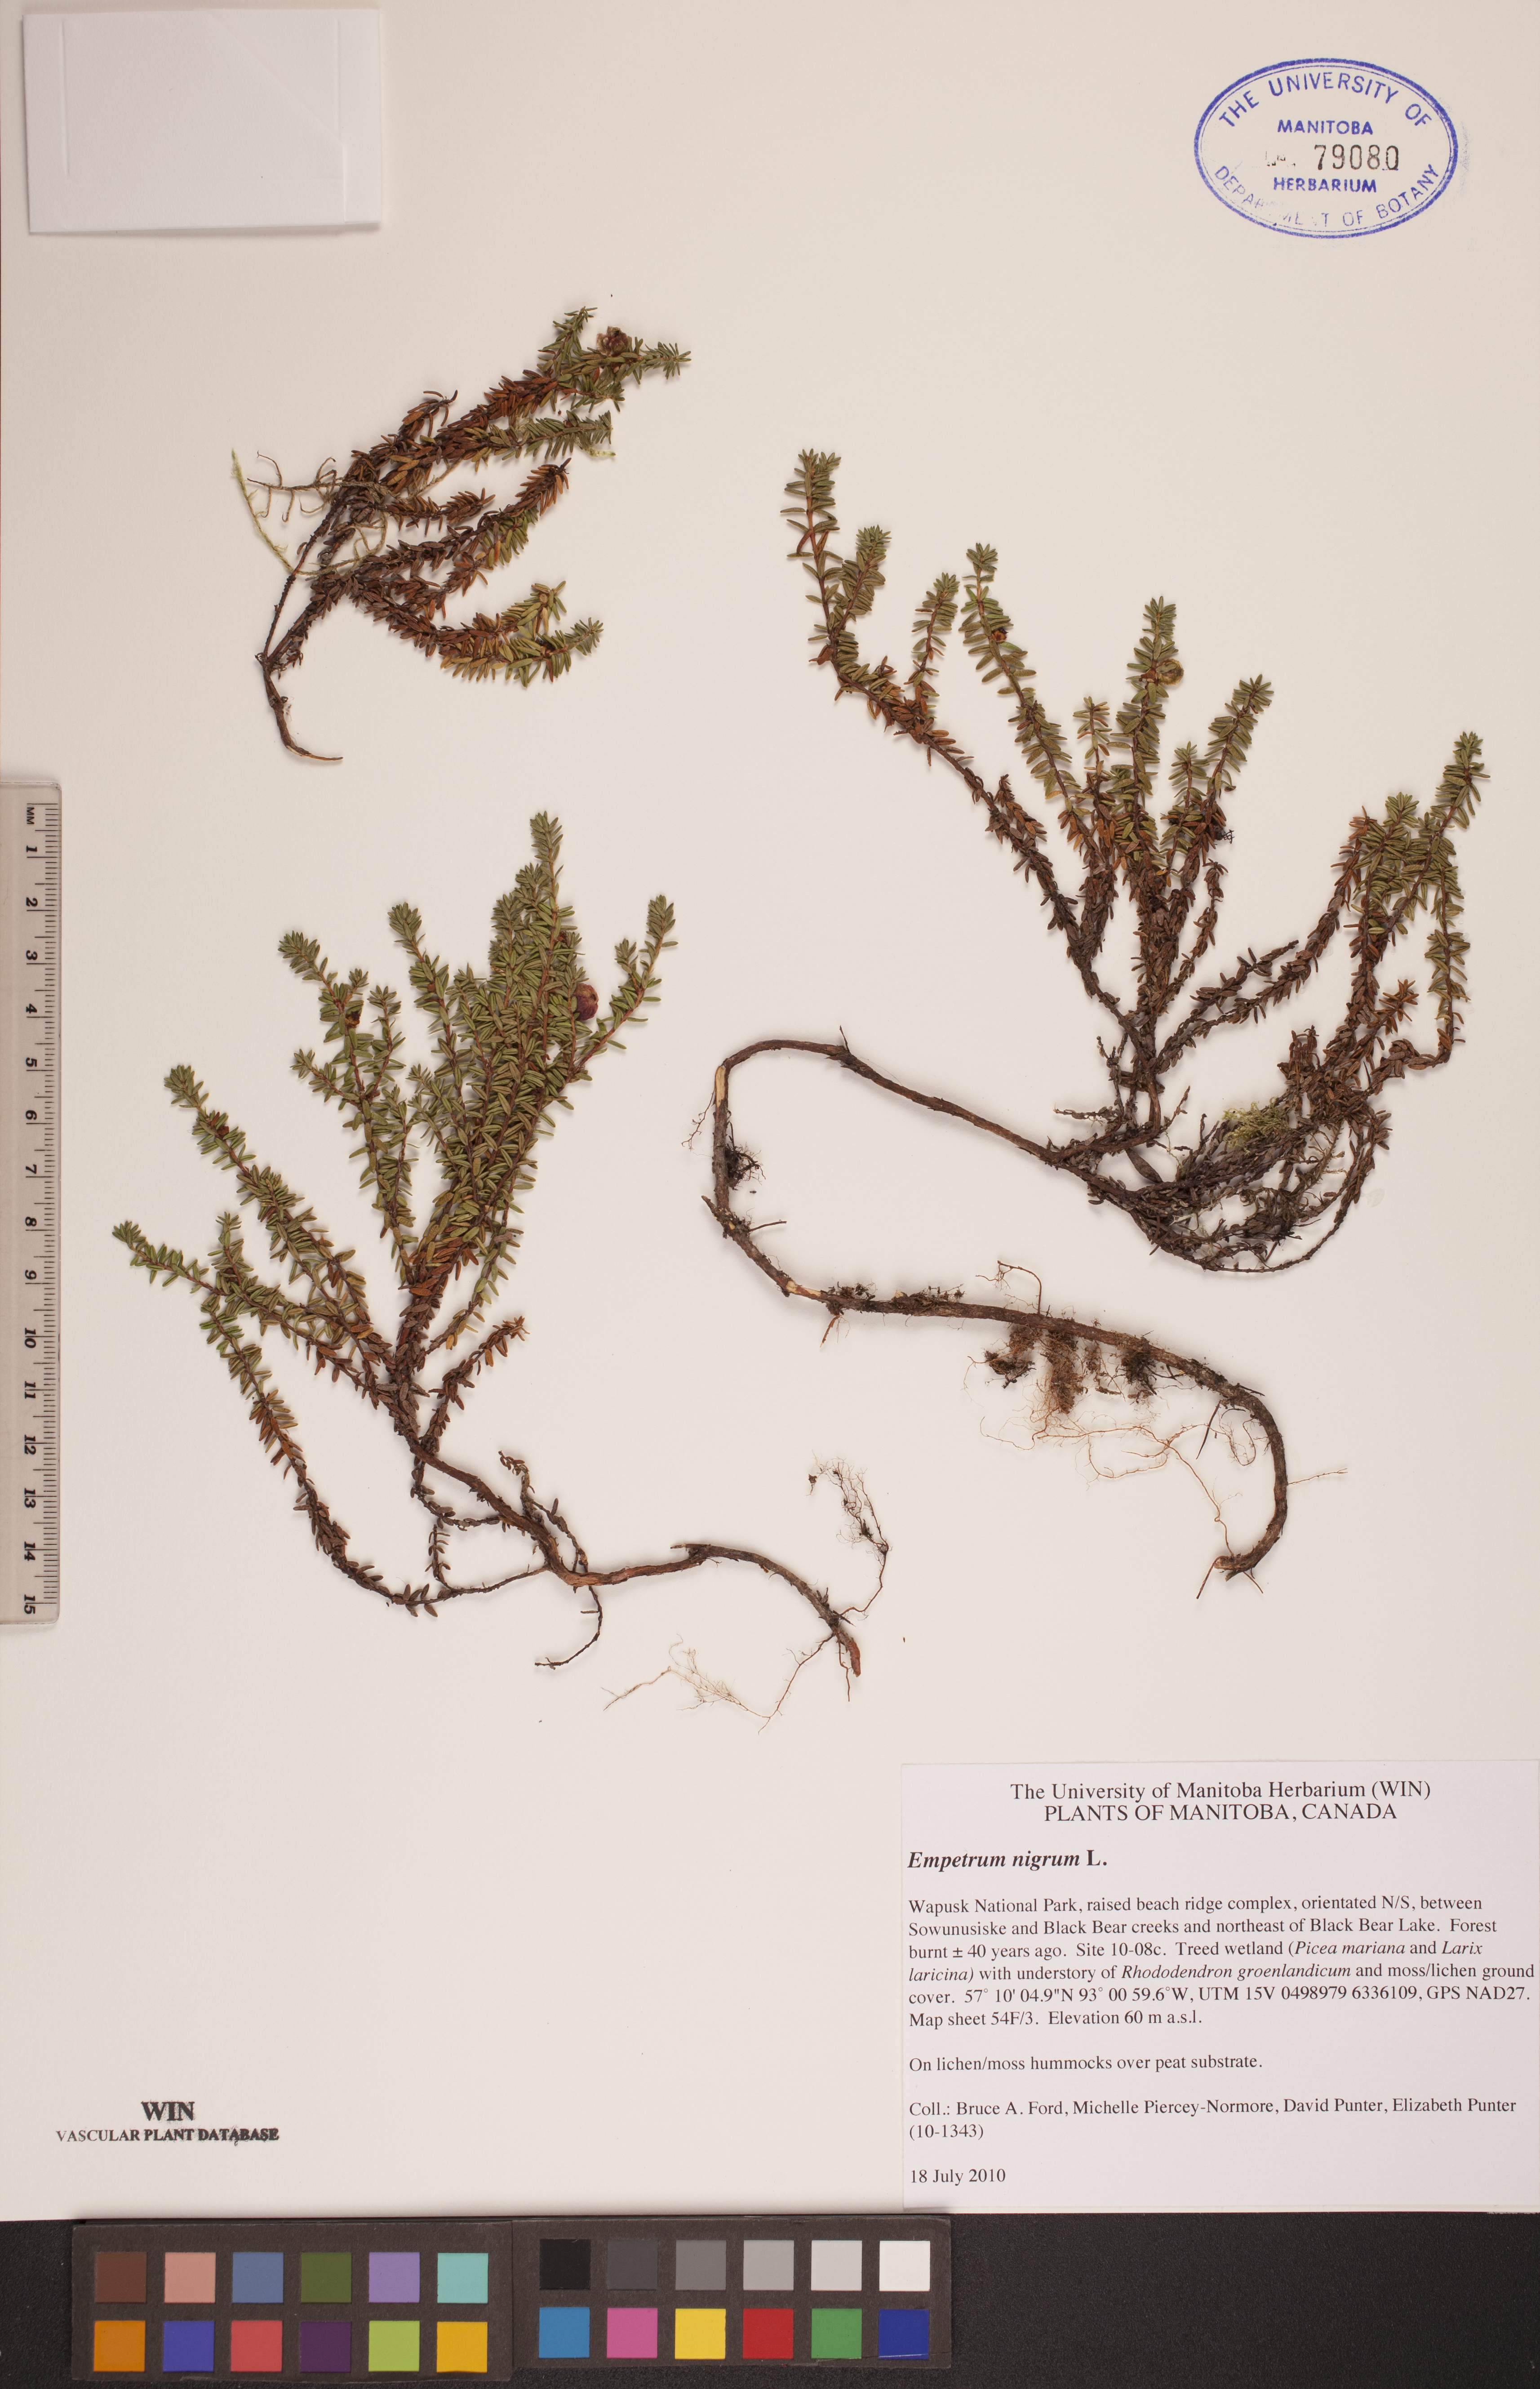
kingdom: Plantae
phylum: Tracheophyta
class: Magnoliopsida
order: Ericales
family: Ericaceae
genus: Empetrum
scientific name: Empetrum nigrum
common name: Black crowberry
